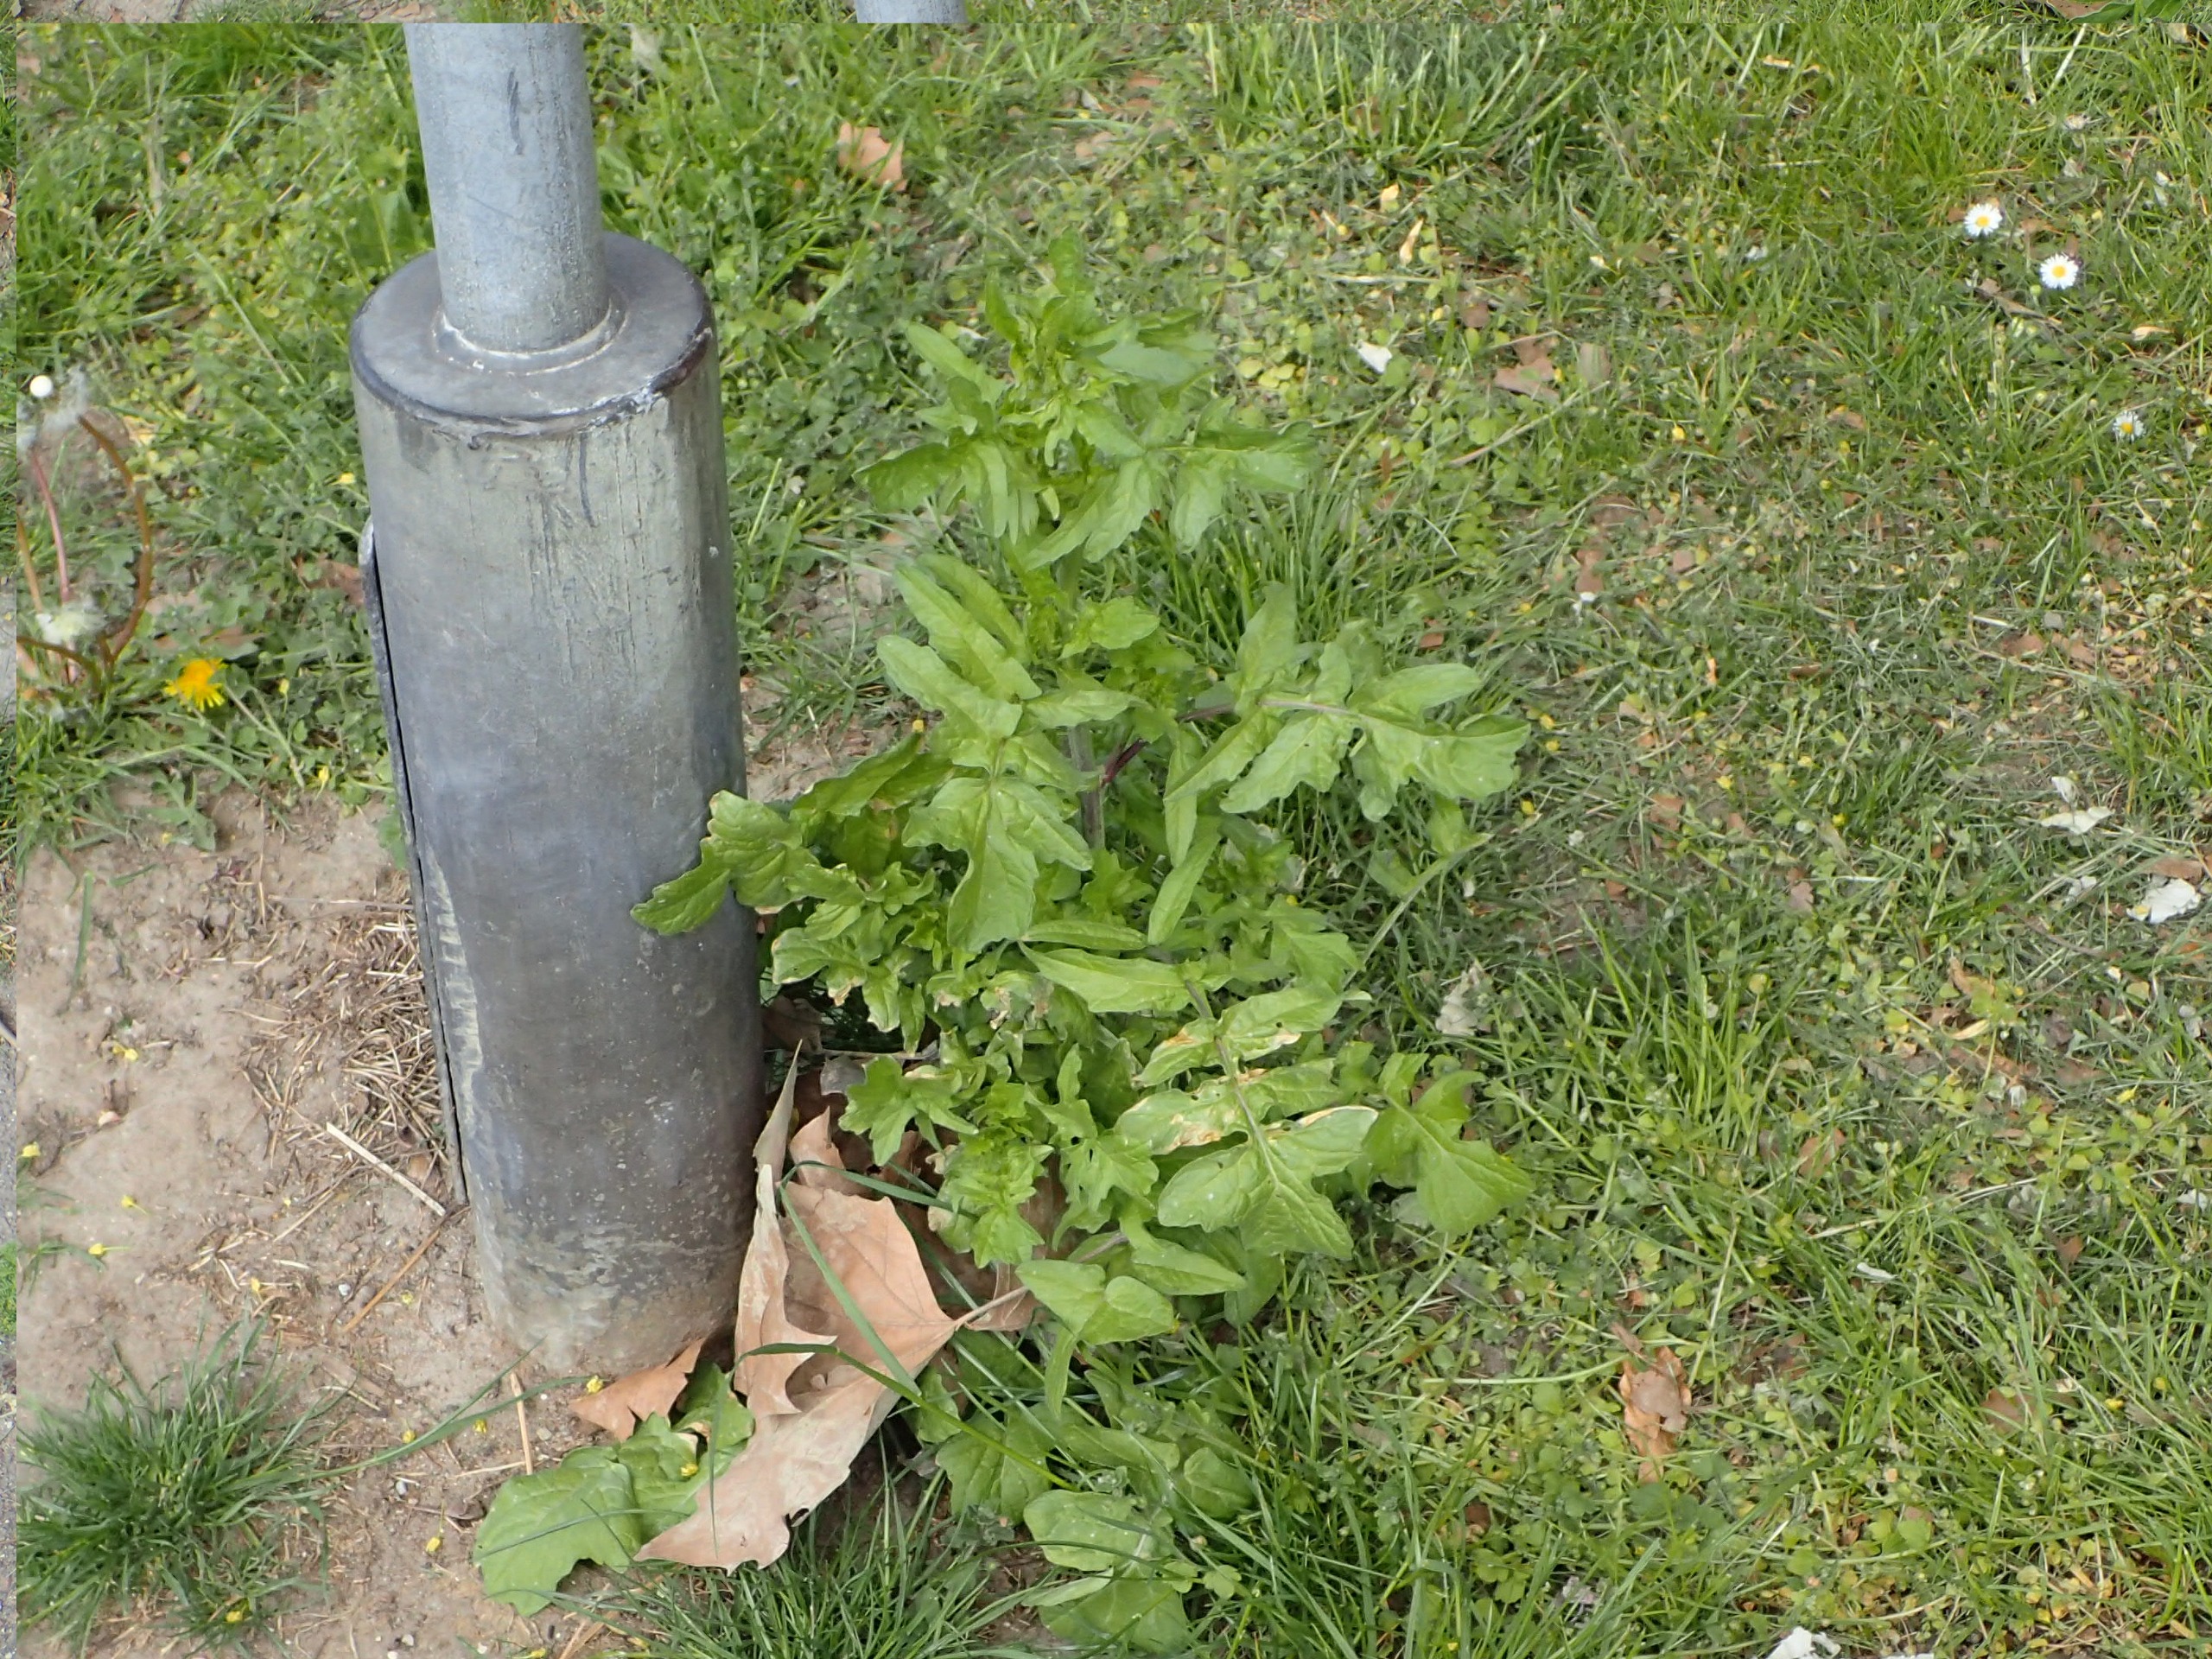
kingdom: Plantae
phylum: Tracheophyta
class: Magnoliopsida
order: Brassicales
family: Brassicaceae
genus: Sisymbrium
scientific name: Sisymbrium officinale
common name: Rank vejsennep
